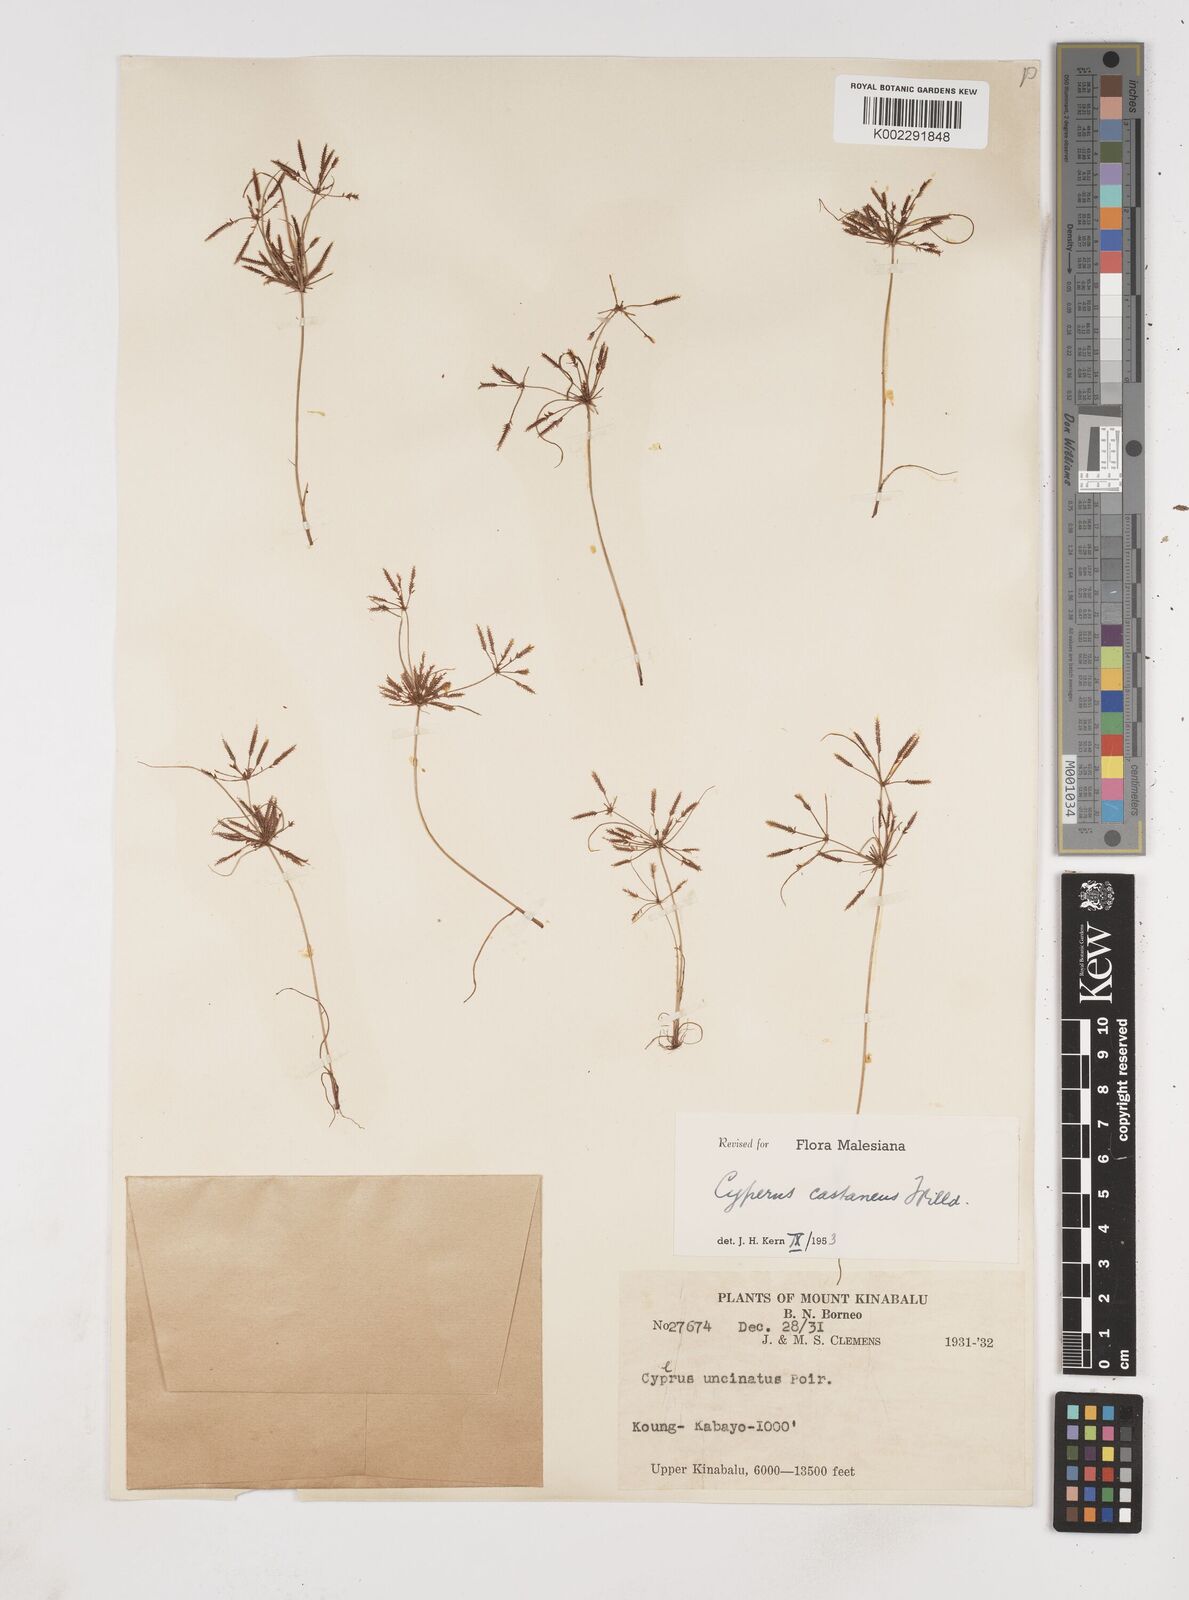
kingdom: Plantae
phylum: Tracheophyta
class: Liliopsida
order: Poales
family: Cyperaceae
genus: Cyperus
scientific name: Cyperus castaneus
